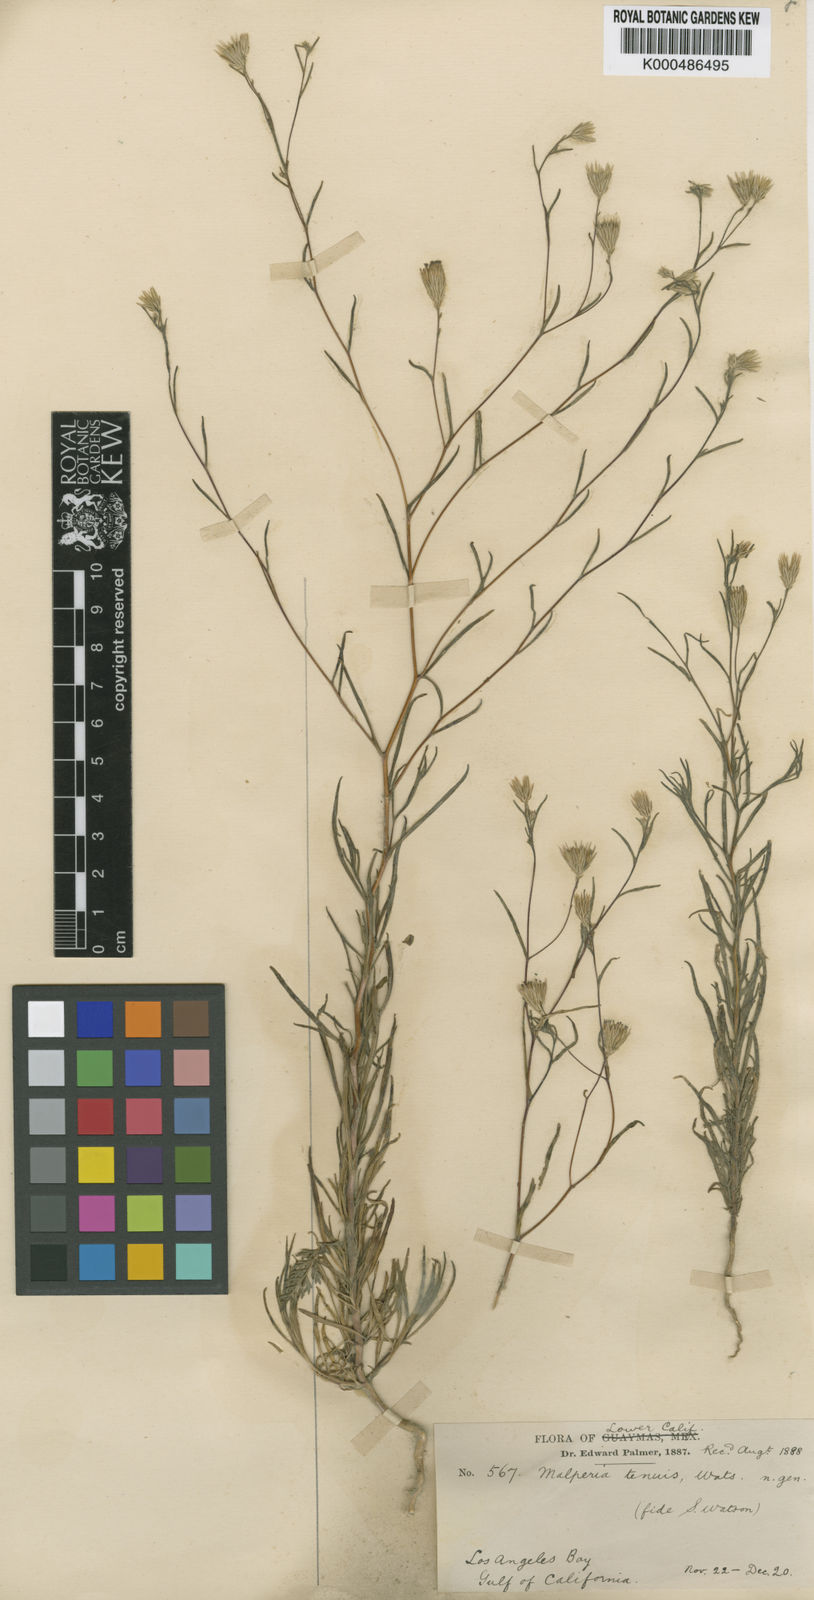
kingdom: Plantae
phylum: Tracheophyta
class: Magnoliopsida
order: Asterales
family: Asteraceae
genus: Malperia
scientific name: Malperia tenuis
